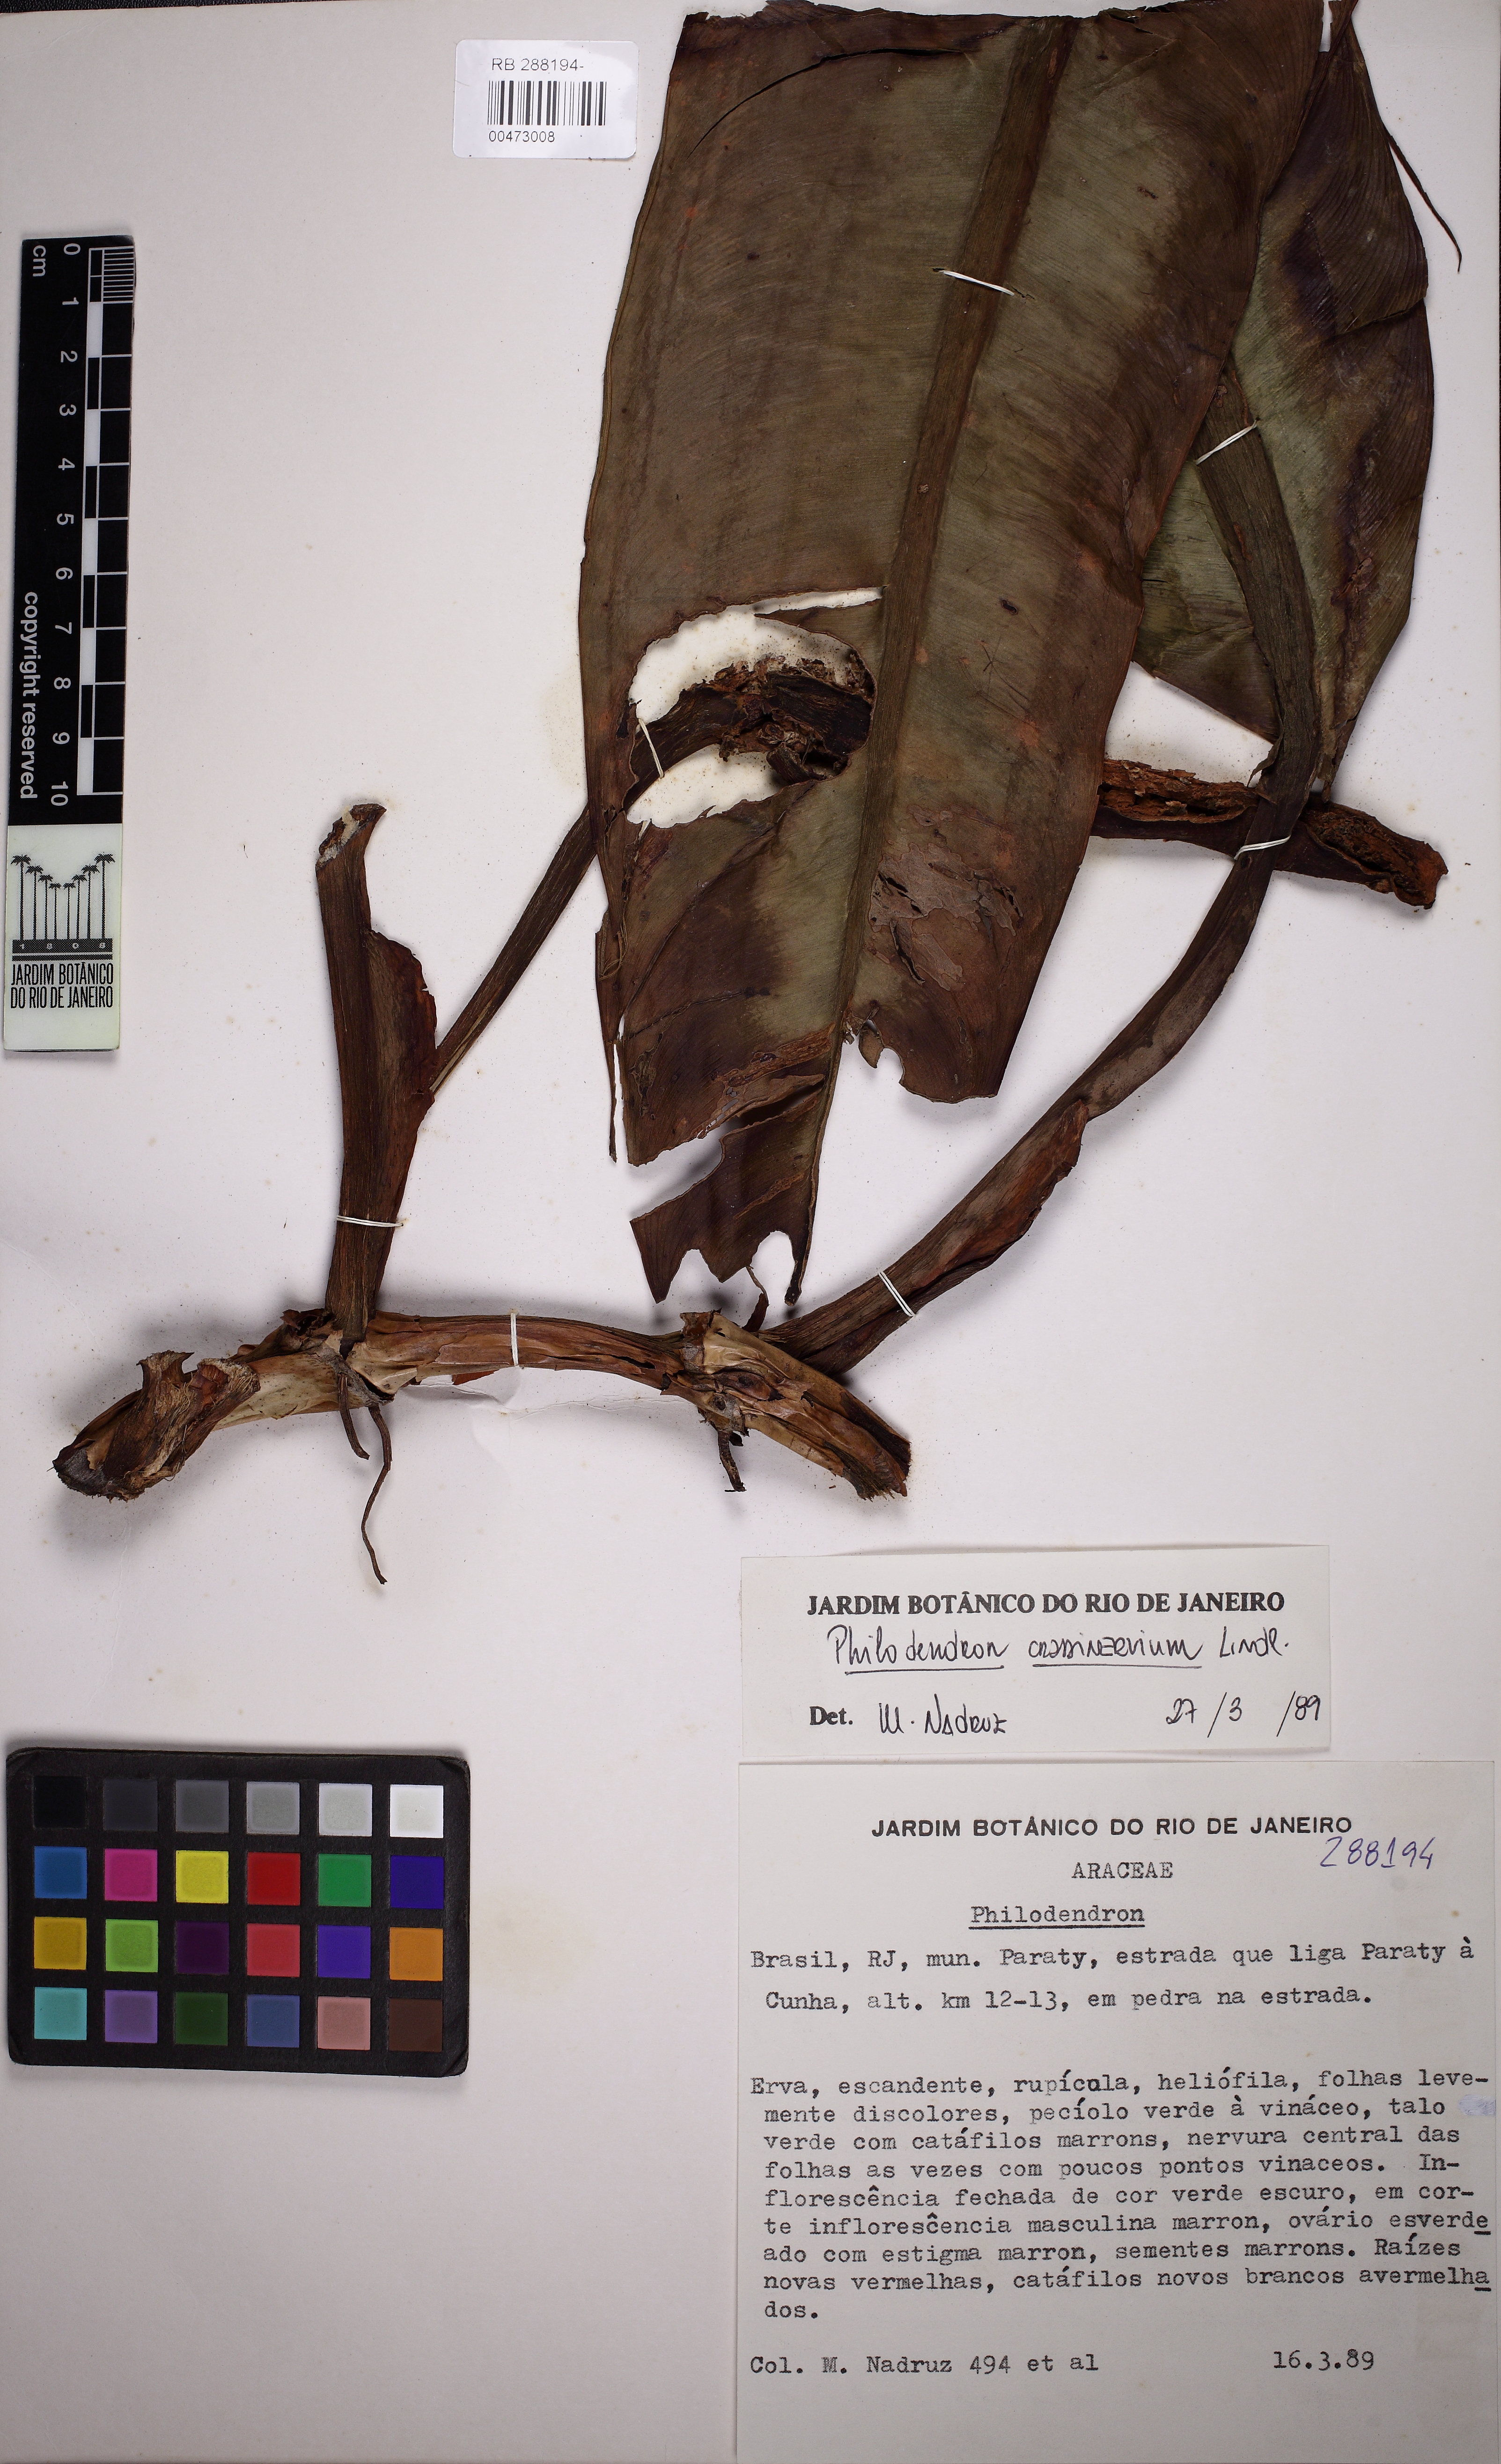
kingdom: Plantae
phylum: Tracheophyta
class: Liliopsida
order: Alismatales
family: Araceae
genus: Philodendron
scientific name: Philodendron crassinervium
